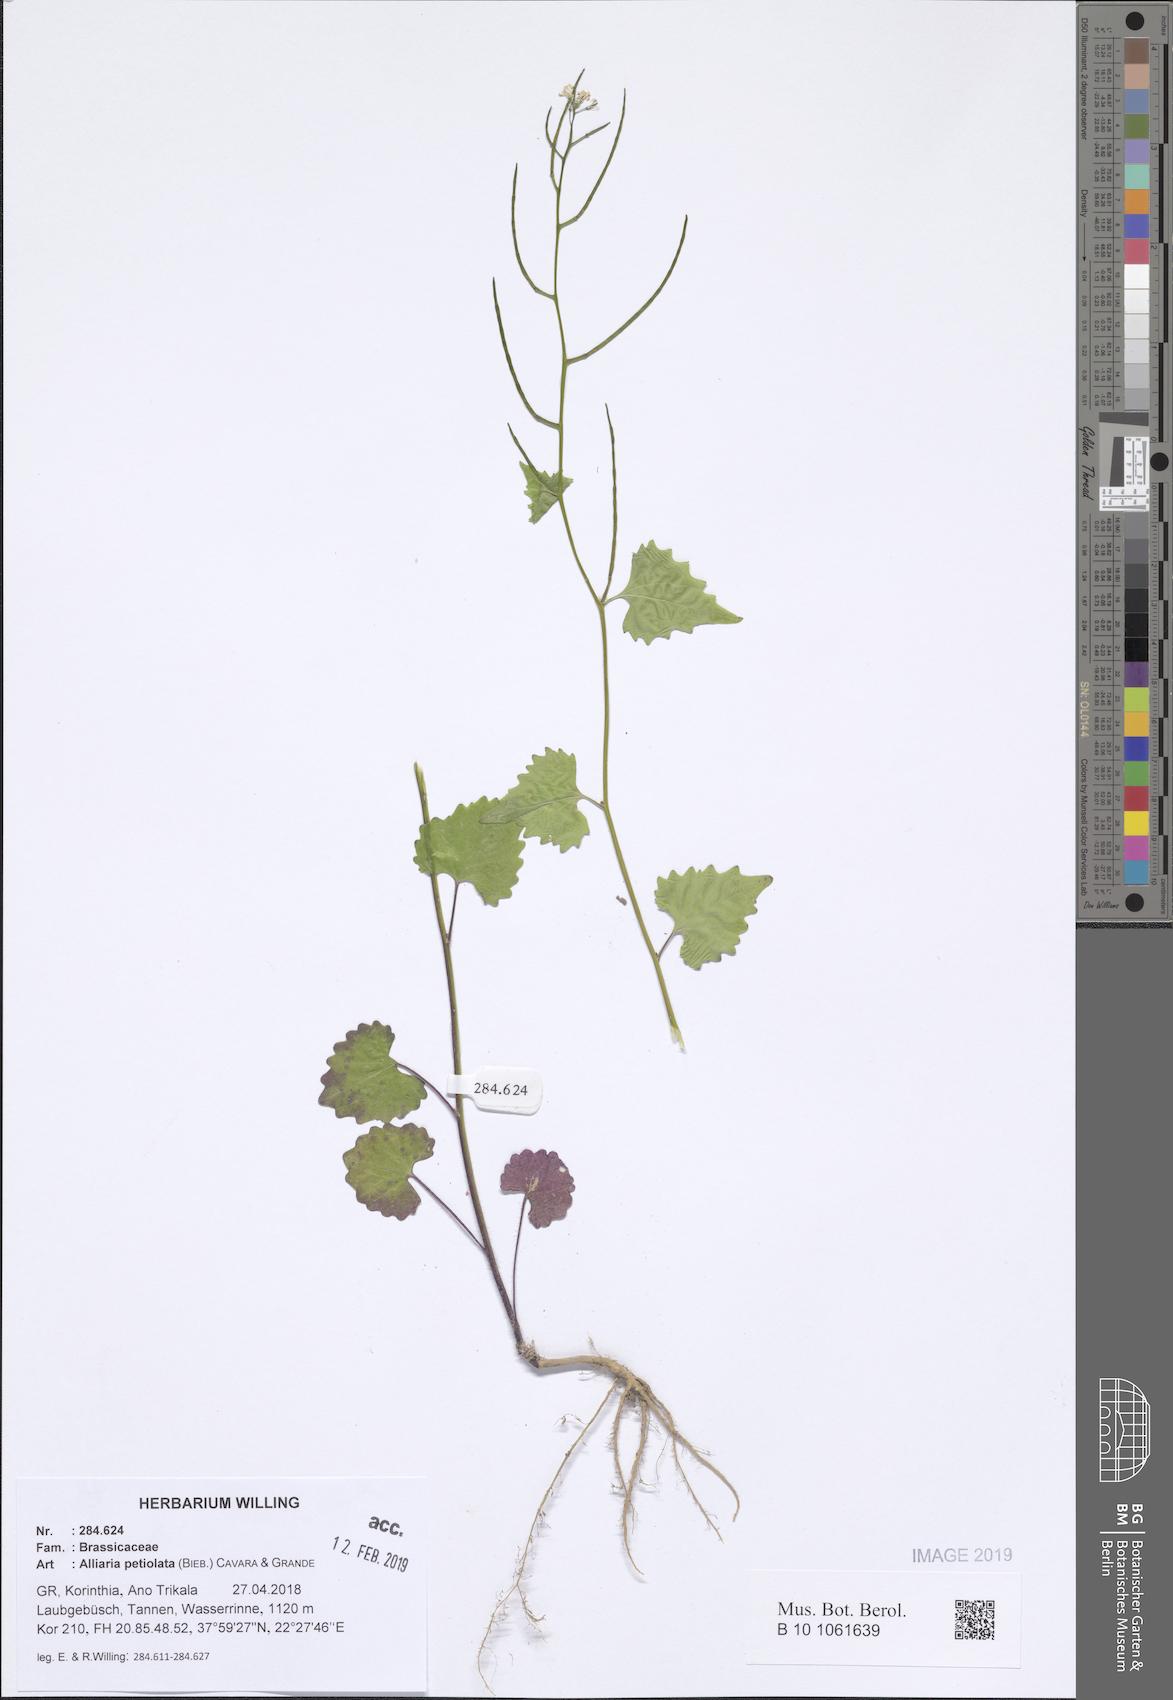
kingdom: Plantae
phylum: Tracheophyta
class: Magnoliopsida
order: Brassicales
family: Brassicaceae
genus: Alliaria
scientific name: Alliaria petiolata
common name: Garlic mustard
